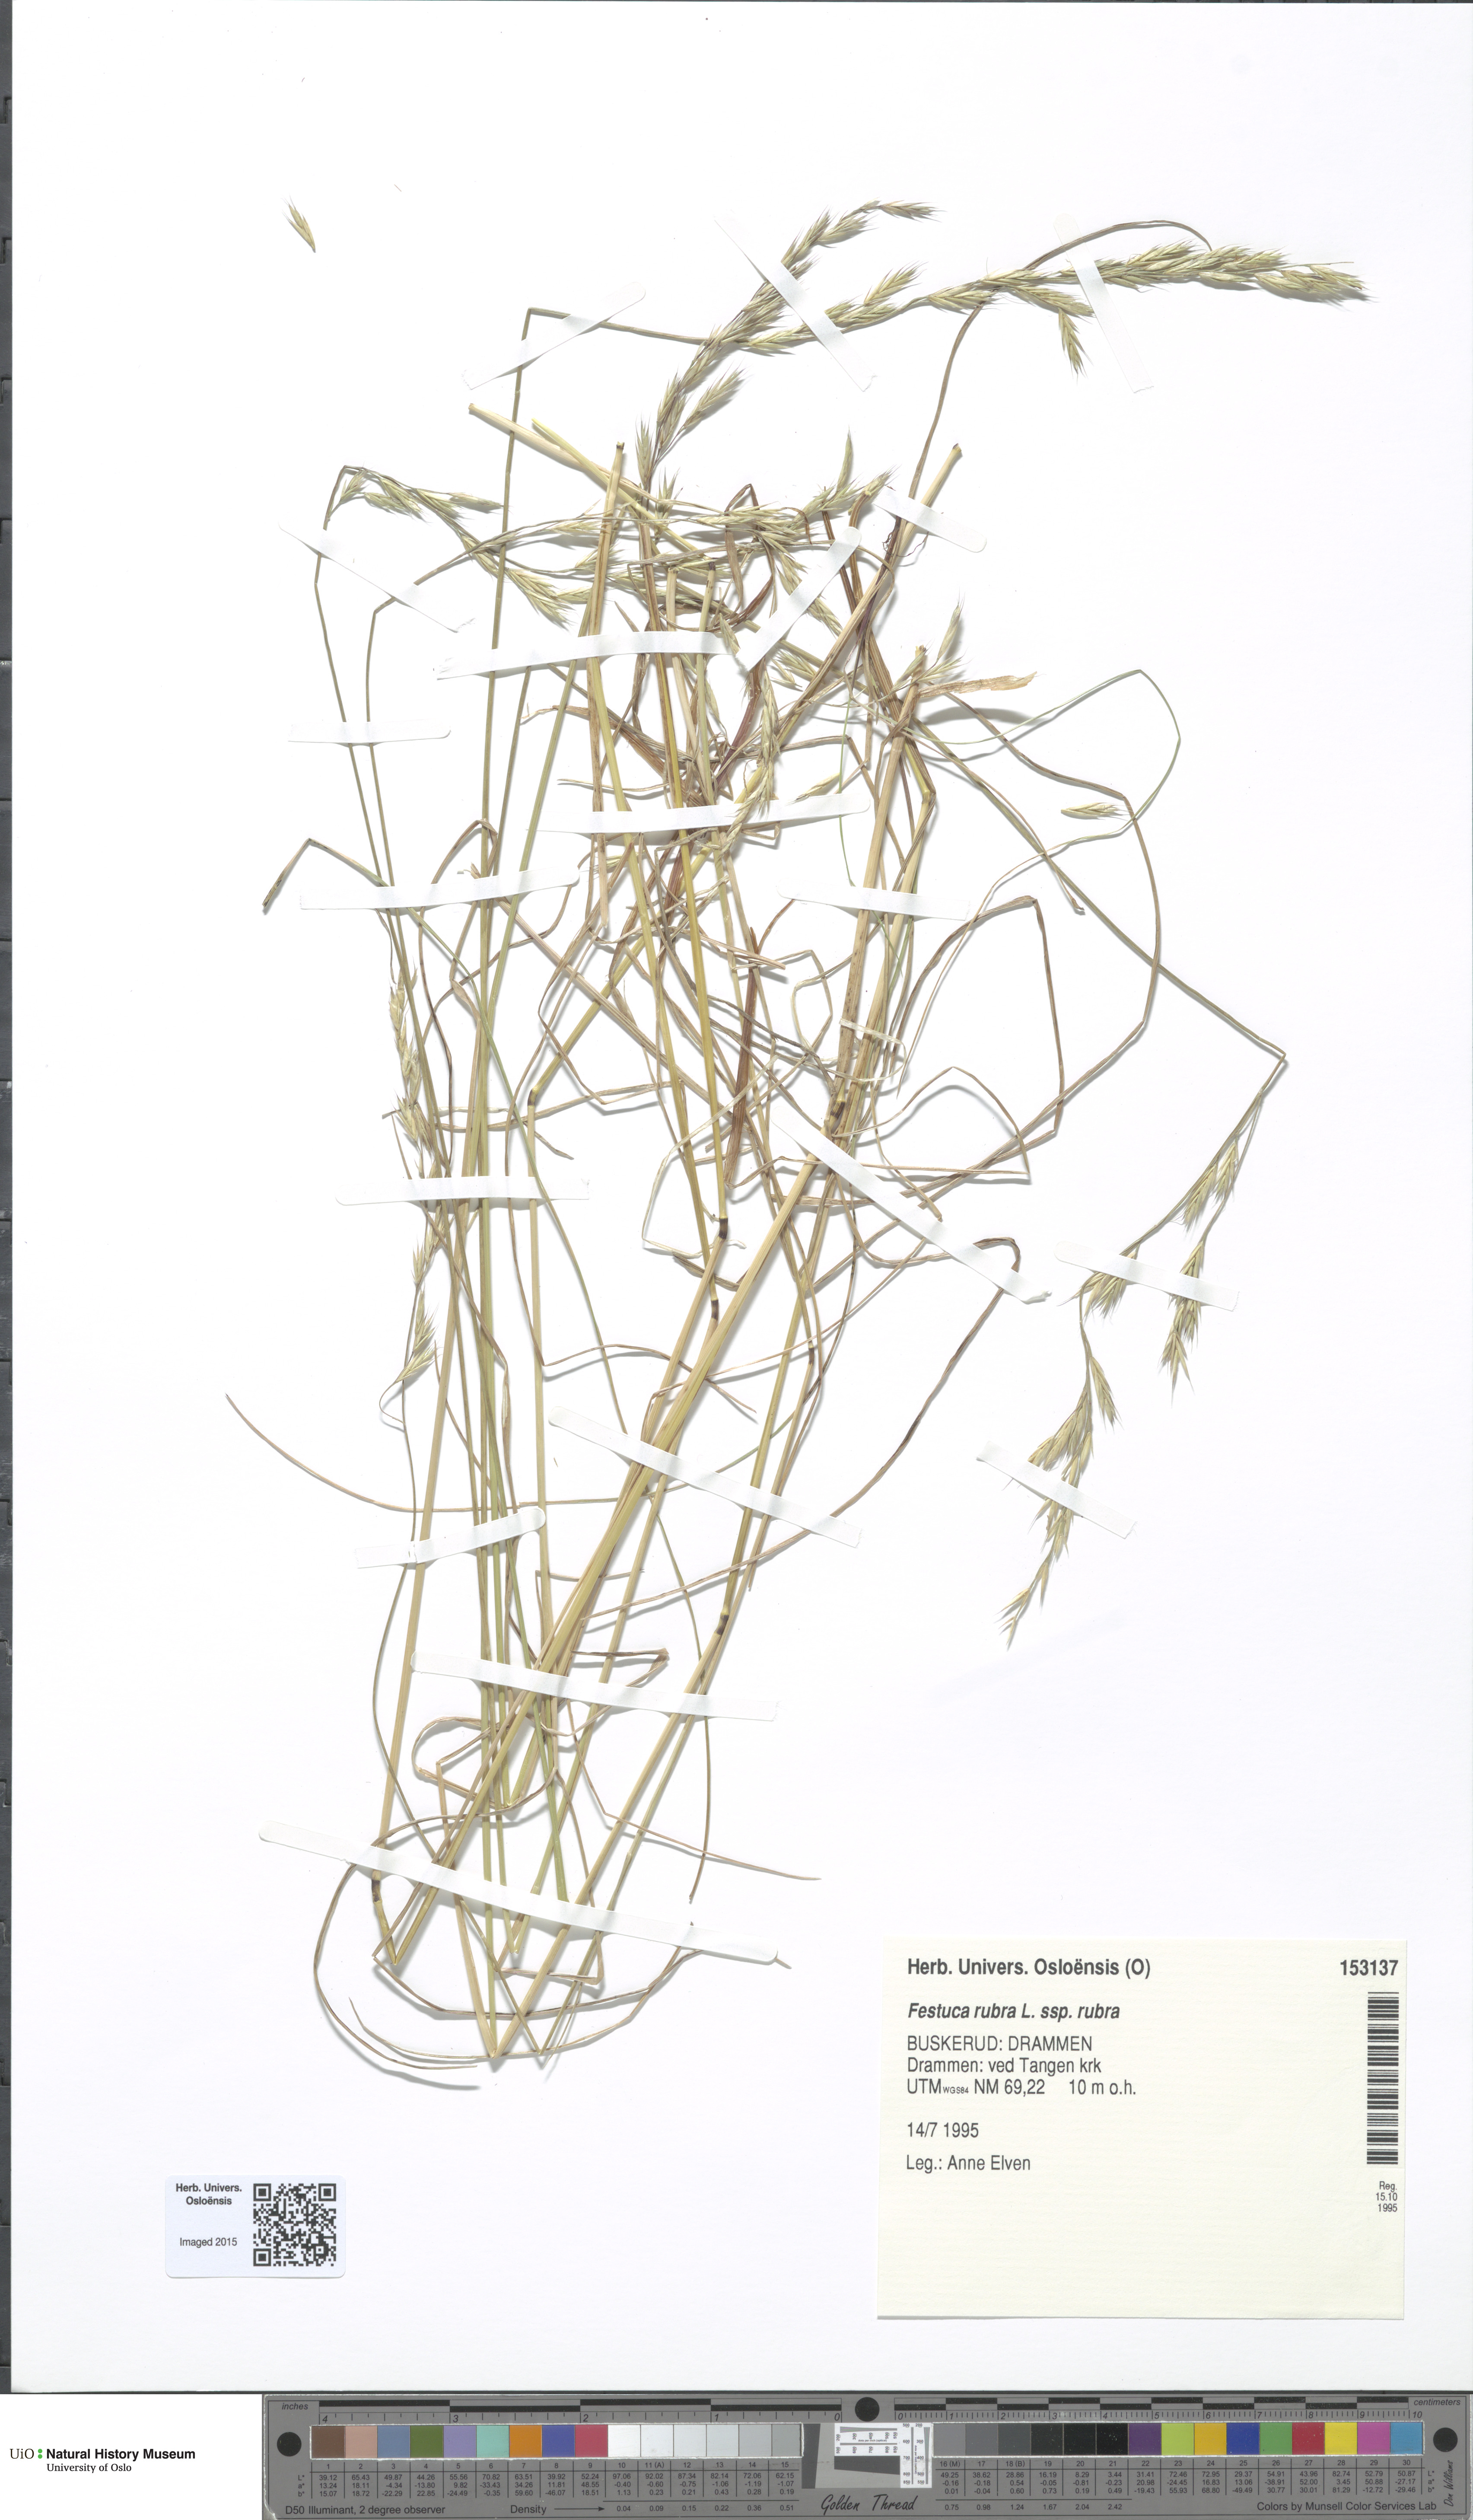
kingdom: Plantae
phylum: Tracheophyta
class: Liliopsida
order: Poales
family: Poaceae
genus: Festuca
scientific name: Festuca rubra
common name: Red fescue
